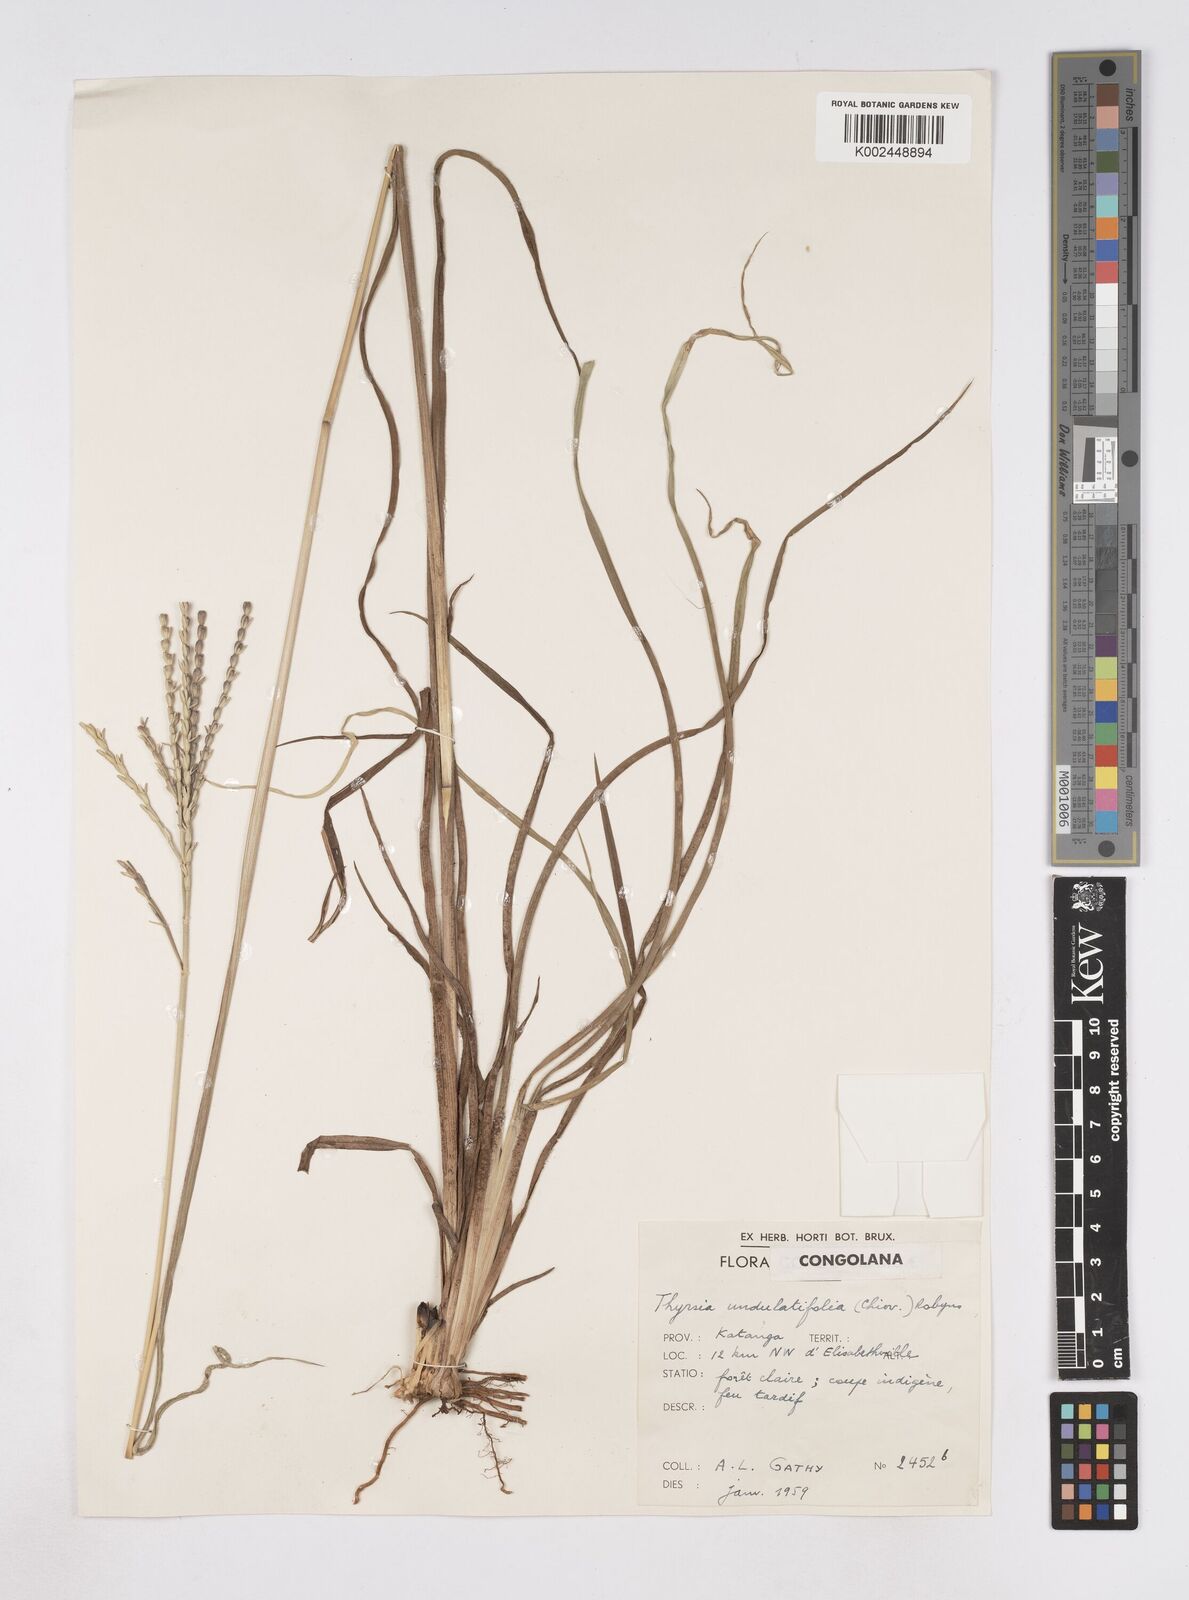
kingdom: Plantae
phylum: Tracheophyta
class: Liliopsida
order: Poales
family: Poaceae
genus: Thyrsia
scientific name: Thyrsia huillensis
